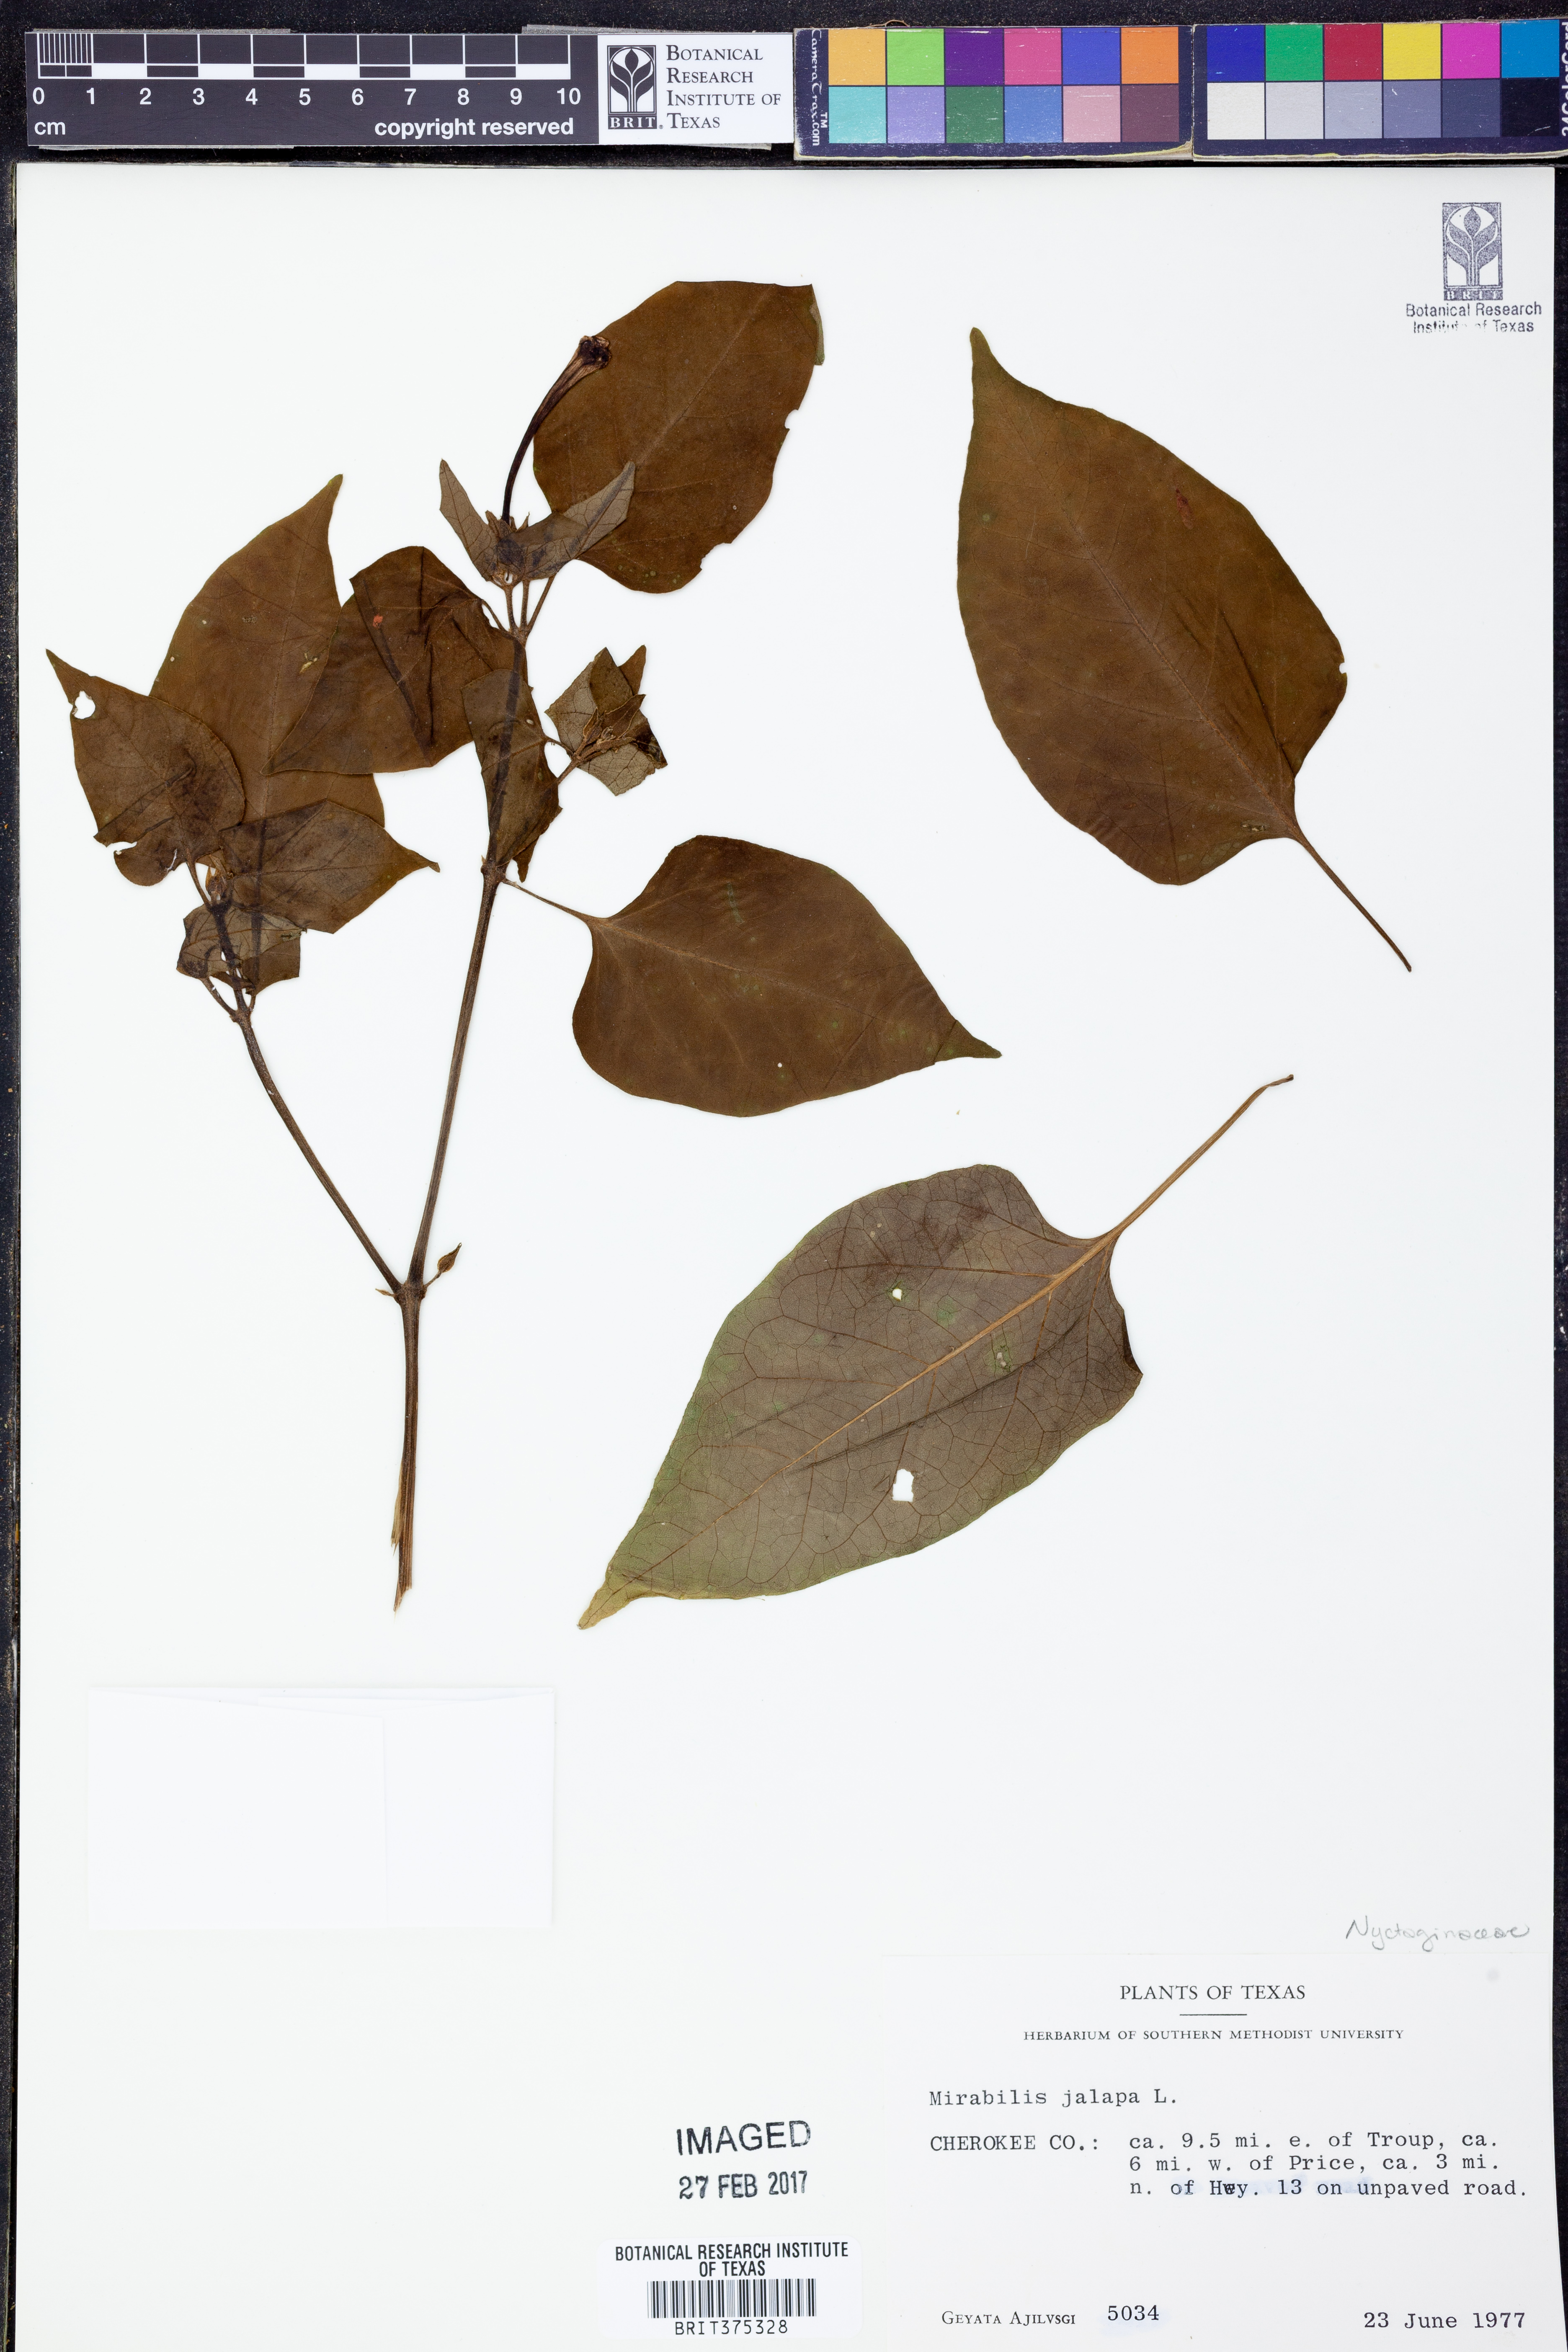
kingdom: Plantae
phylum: Tracheophyta
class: Magnoliopsida
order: Caryophyllales
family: Nyctaginaceae
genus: Mirabilis
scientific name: Mirabilis jalapa
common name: Marvel-of-peru
